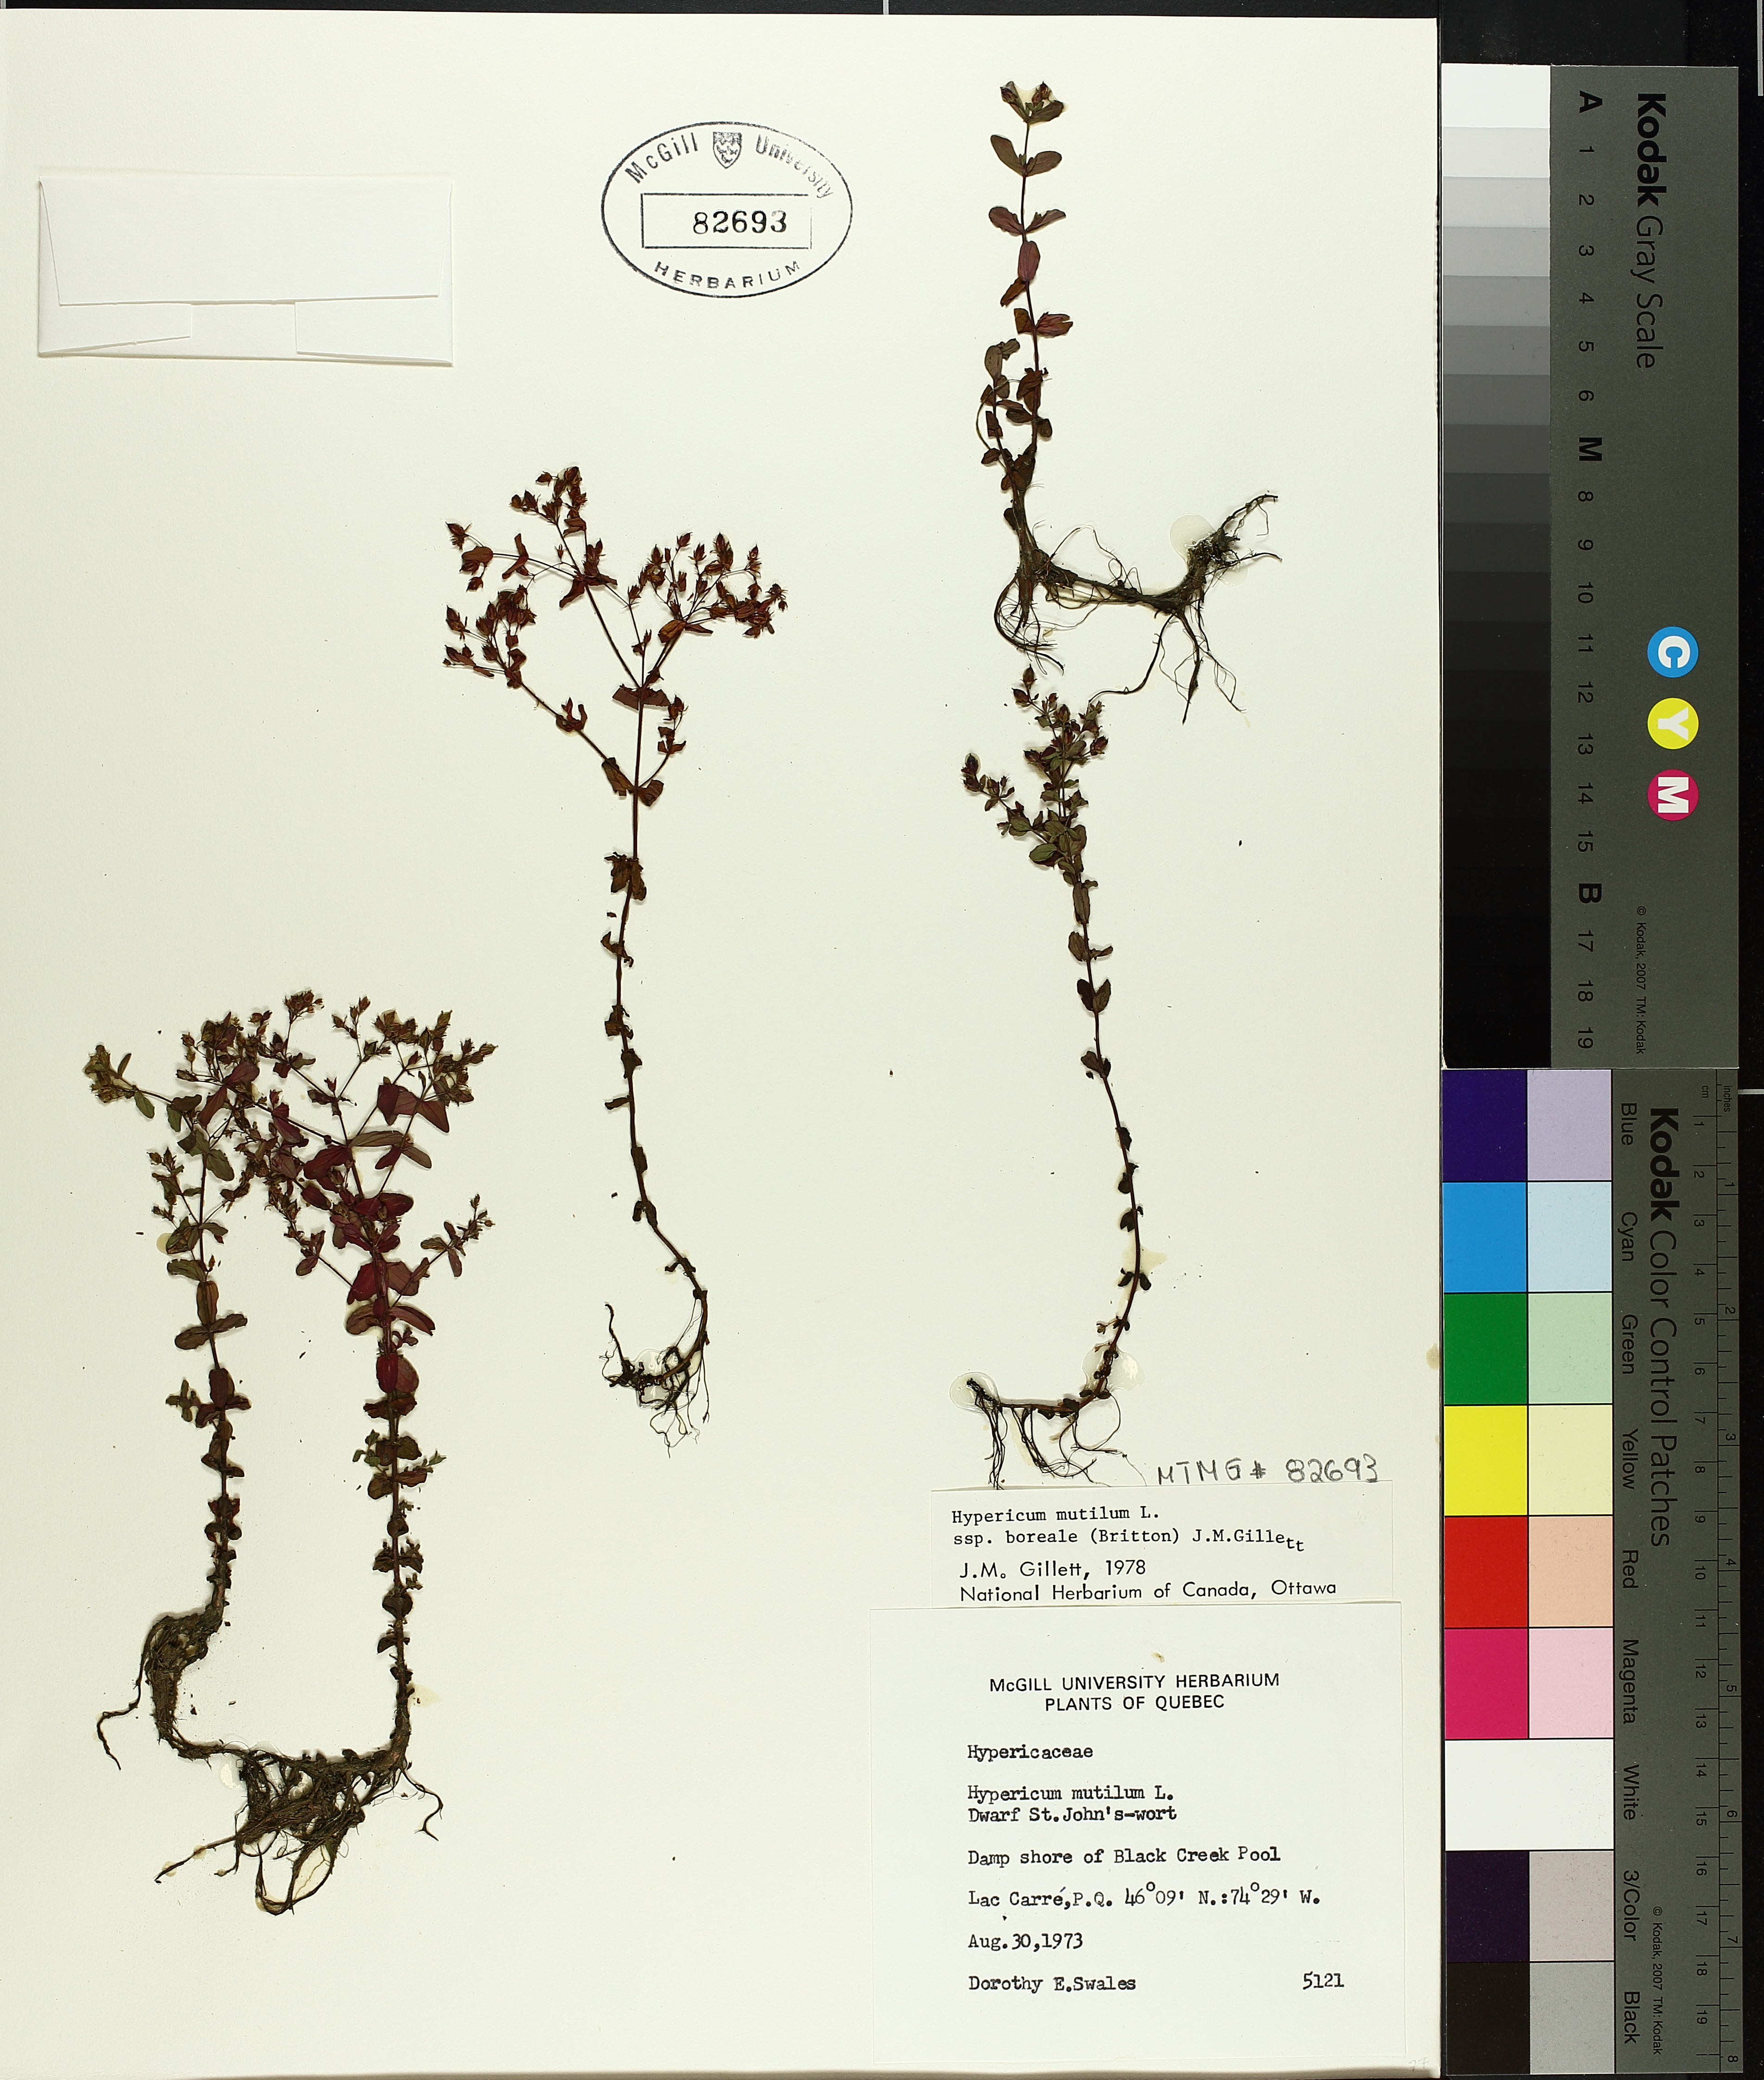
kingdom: Plantae
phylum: Tracheophyta
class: Magnoliopsida
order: Malpighiales
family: Hypericaceae
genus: Hypericum
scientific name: Hypericum boreale
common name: Northern bog st. john's-wort
